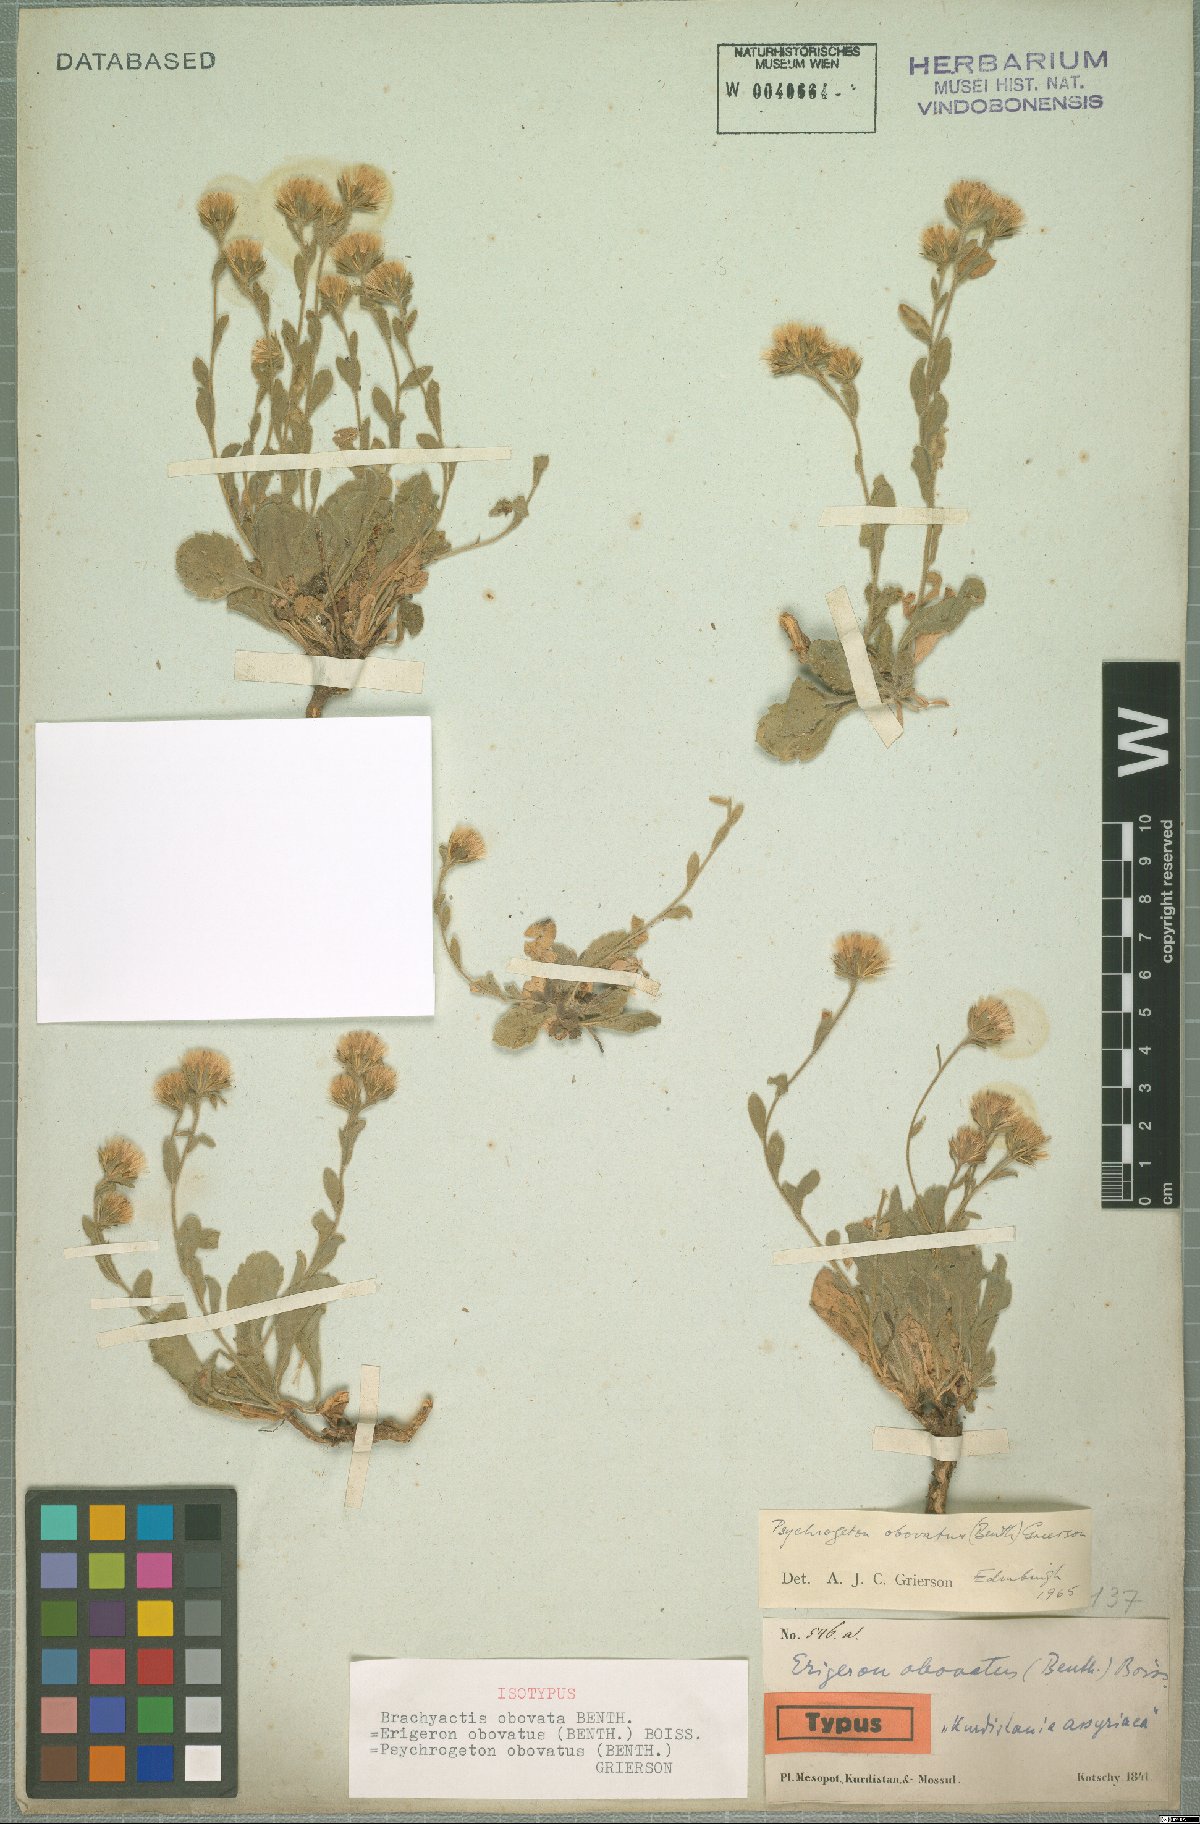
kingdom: Plantae
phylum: Tracheophyta
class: Magnoliopsida
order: Asterales
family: Asteraceae
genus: Neobrachyactis
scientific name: Neobrachyactis obovata
